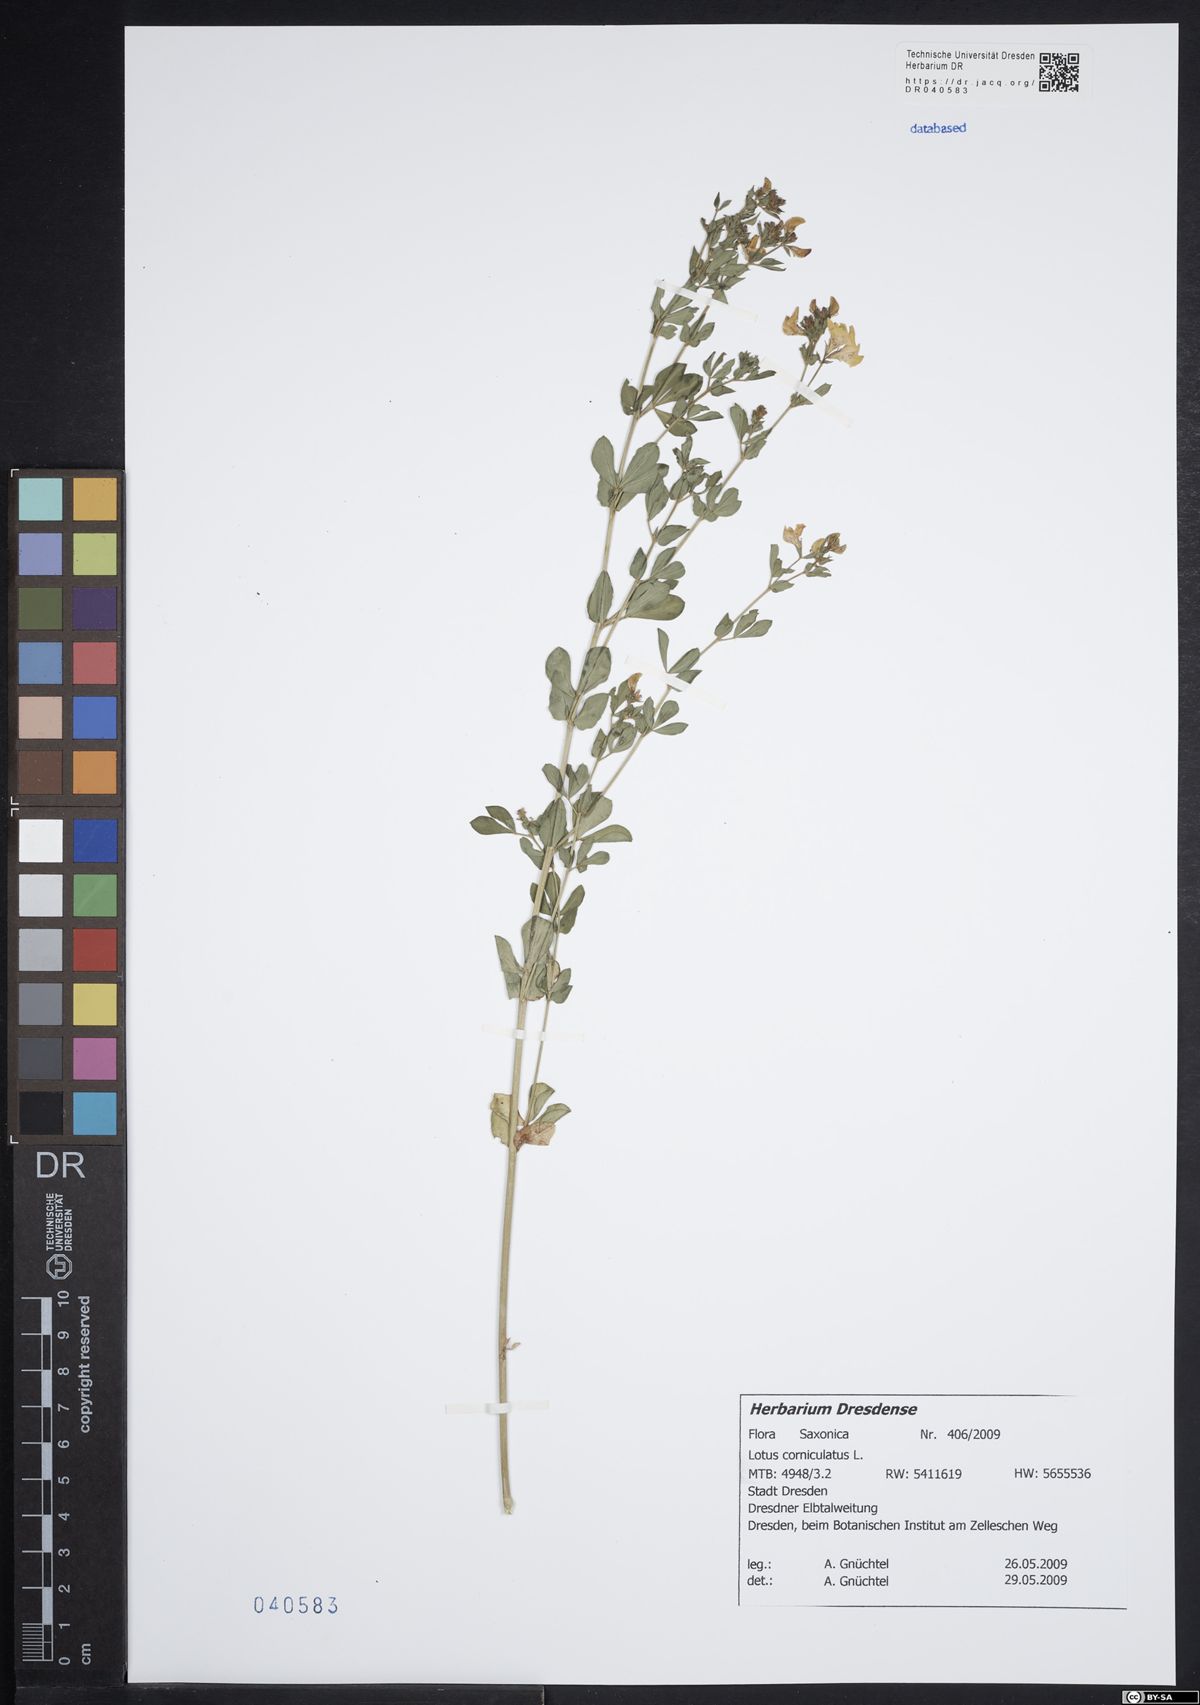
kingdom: Plantae
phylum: Tracheophyta
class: Magnoliopsida
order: Fabales
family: Fabaceae
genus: Lotus
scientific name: Lotus corniculatus
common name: Common bird's-foot-trefoil
